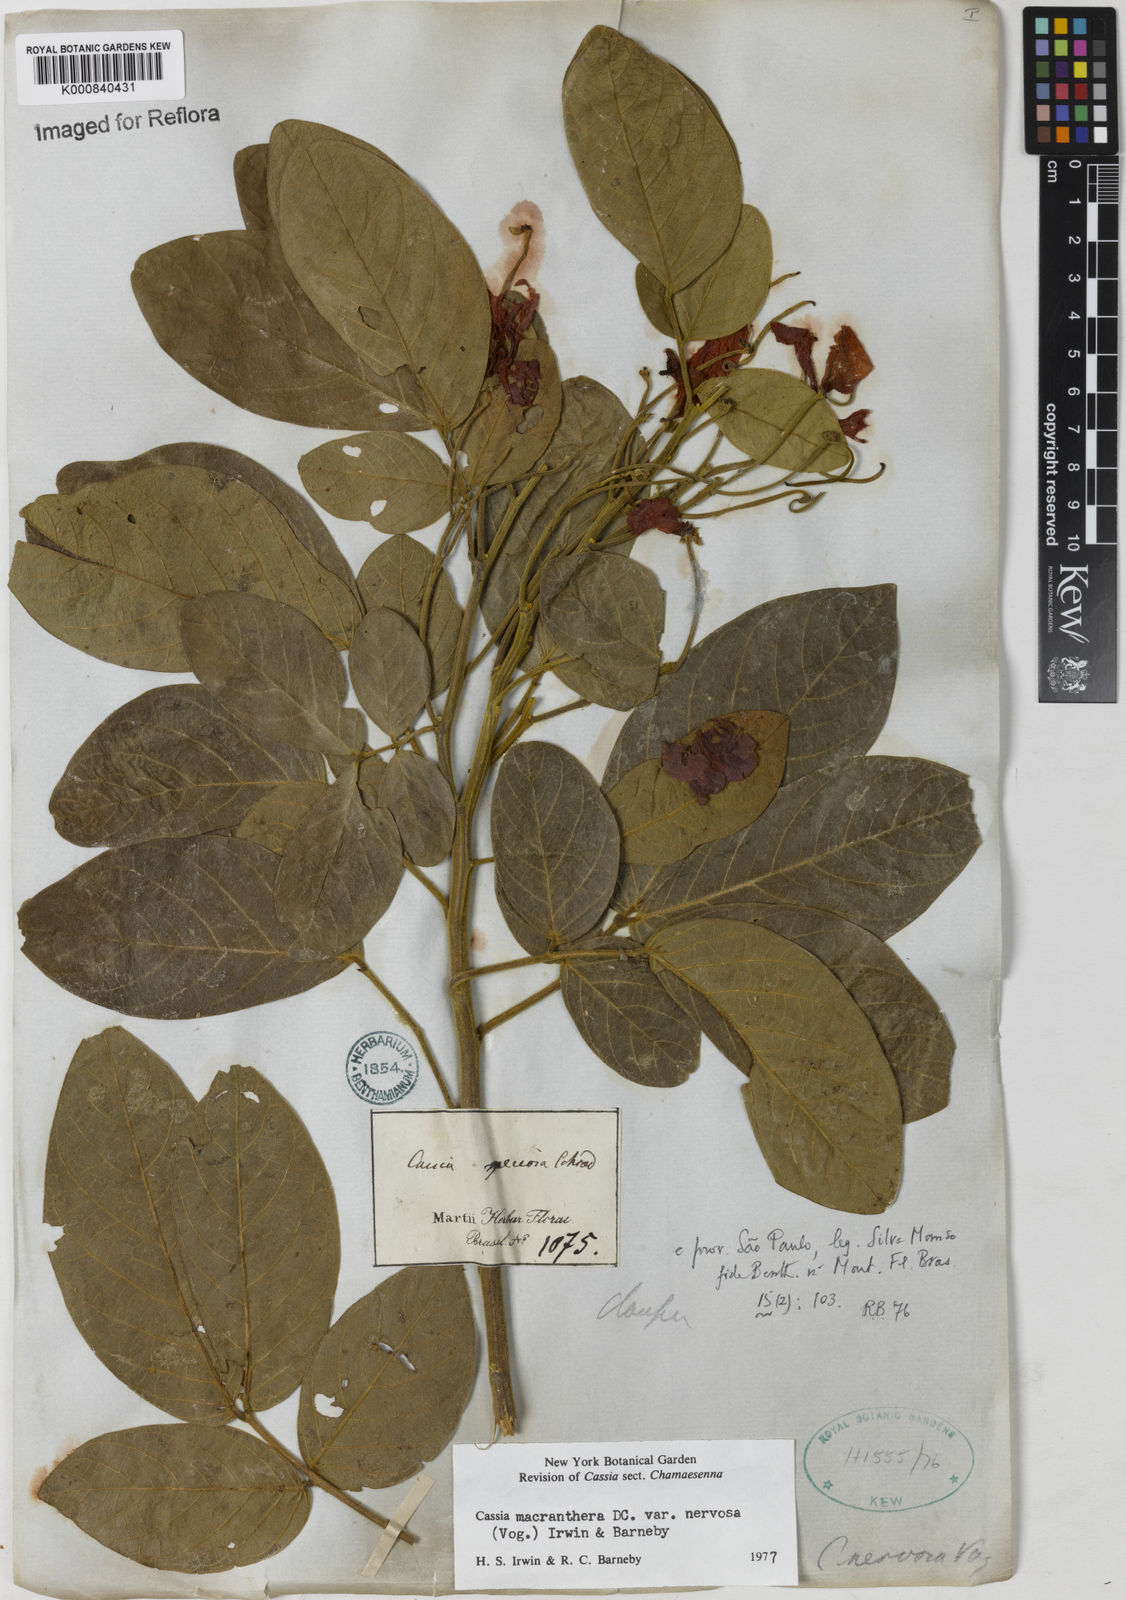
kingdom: Plantae
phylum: Tracheophyta
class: Magnoliopsida
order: Fabales
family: Fabaceae
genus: Senna
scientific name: Senna macranthera
